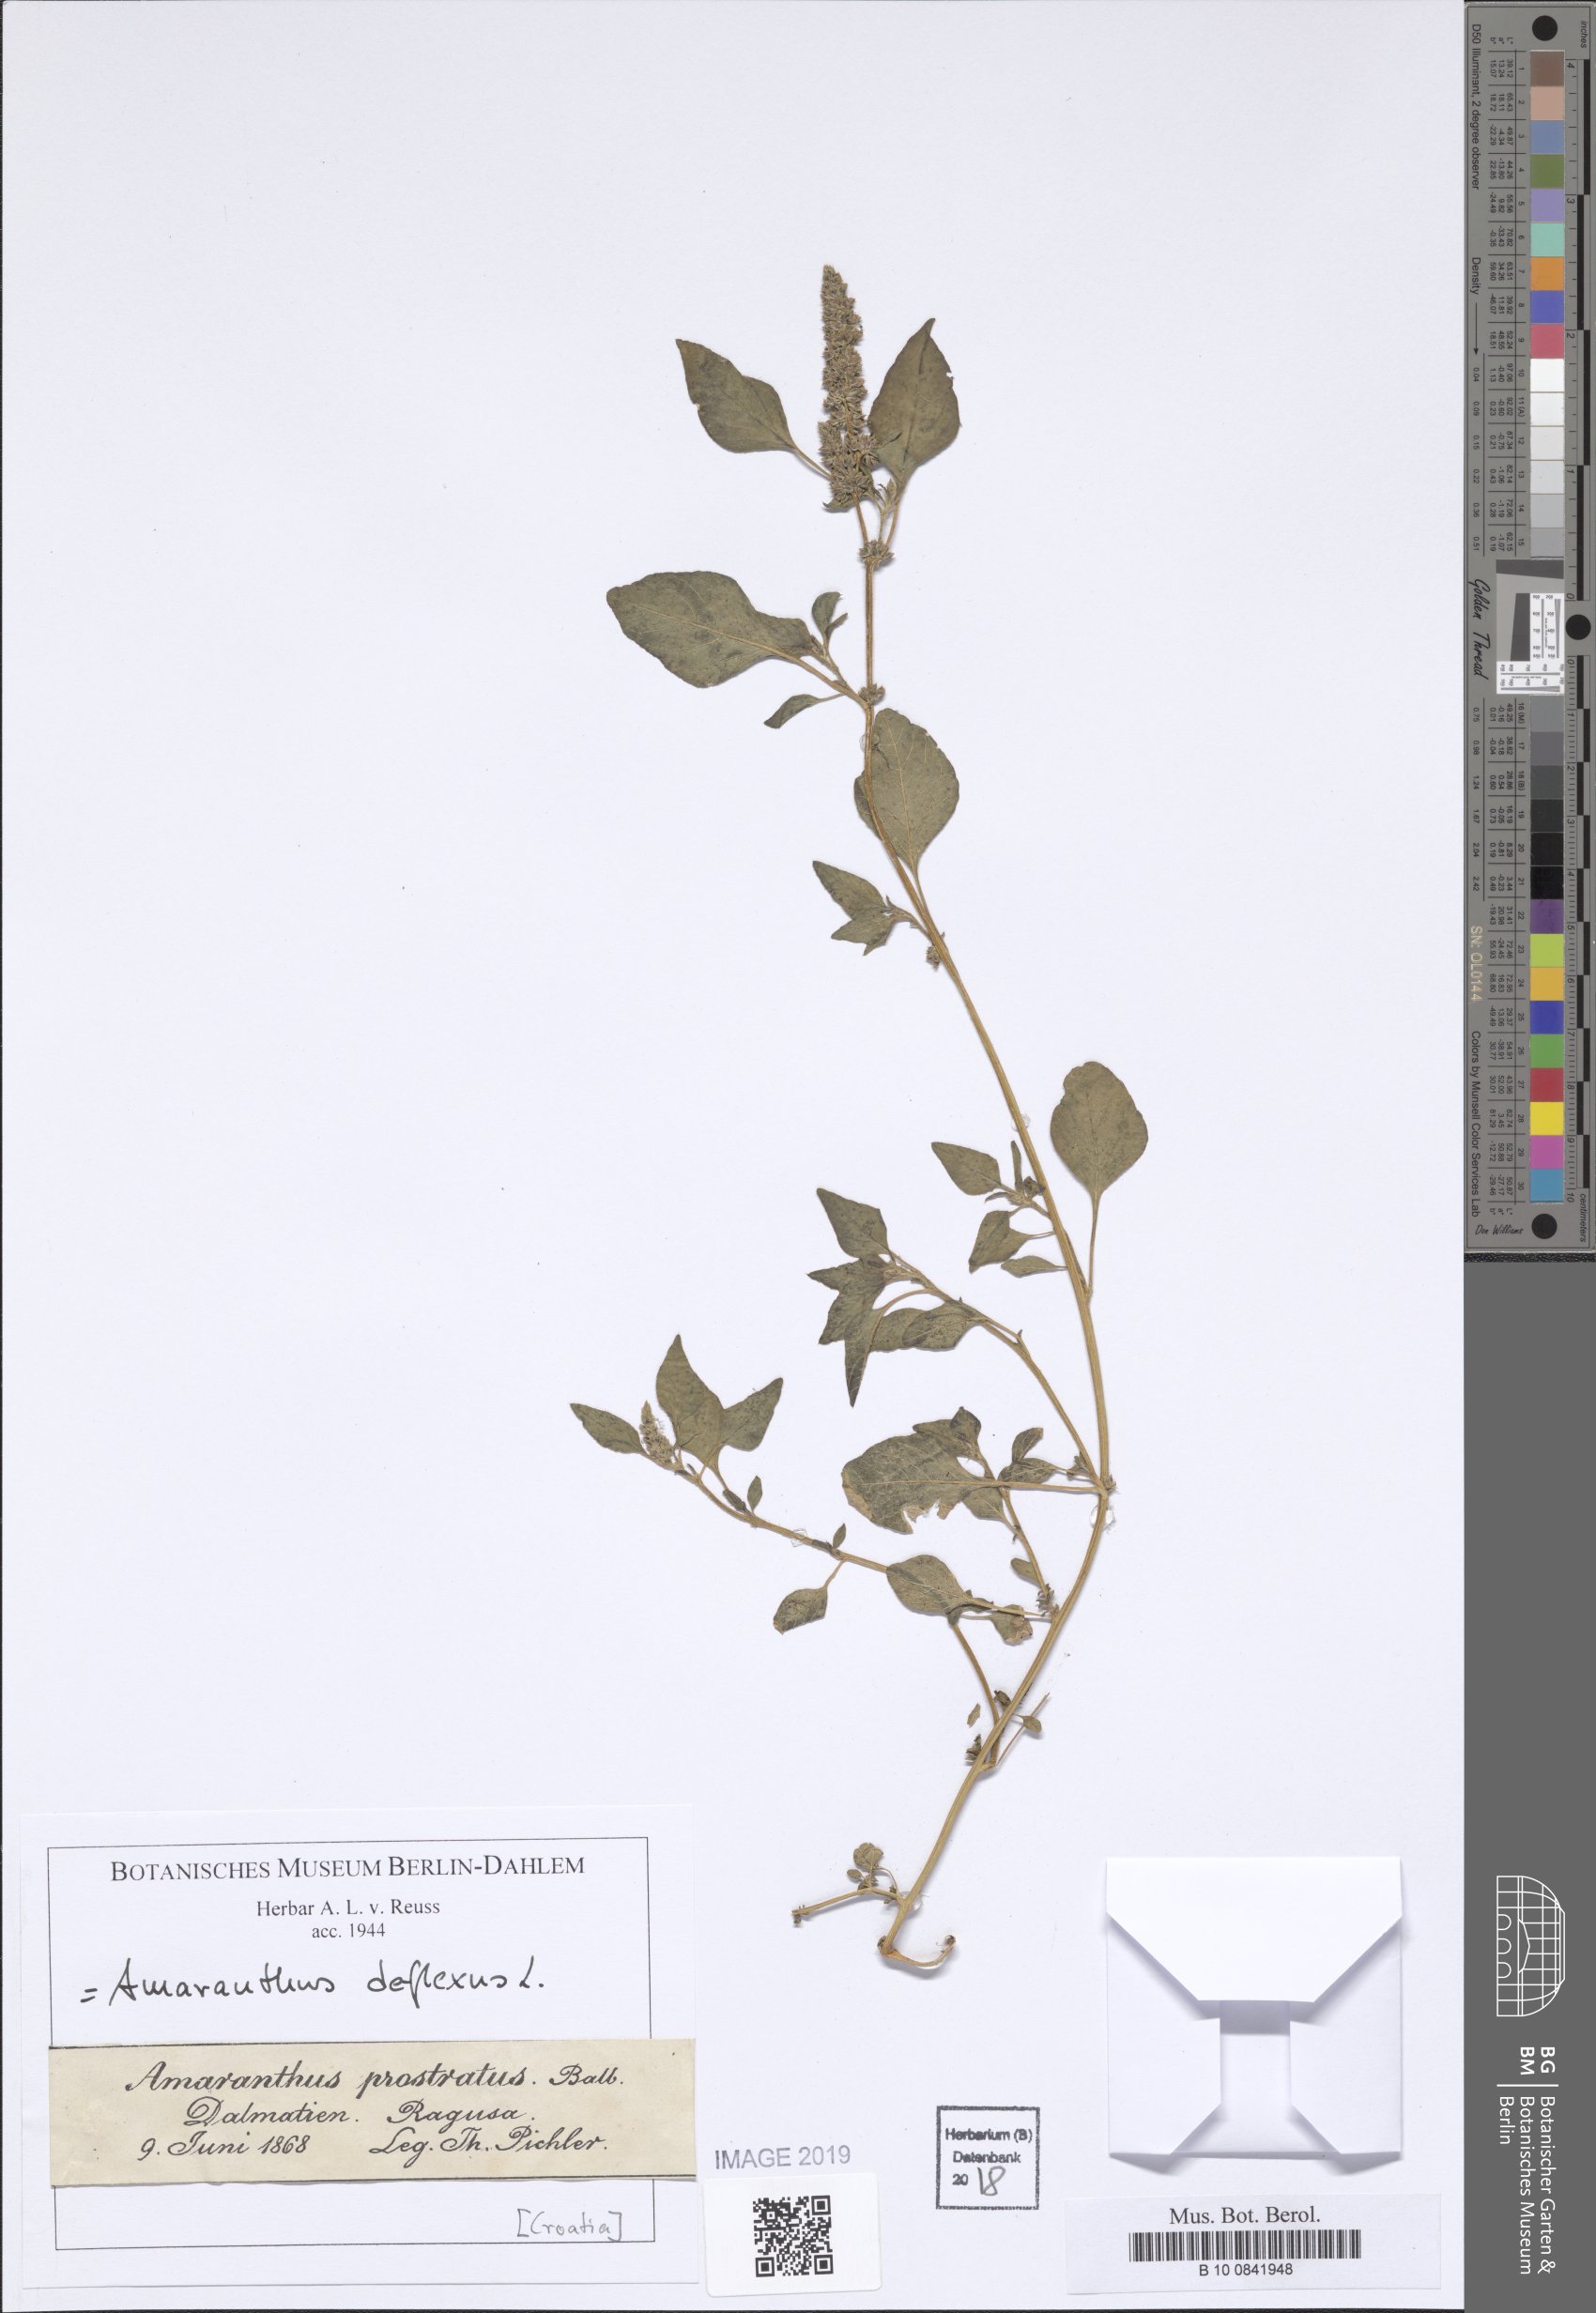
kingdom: Plantae
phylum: Tracheophyta
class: Magnoliopsida
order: Caryophyllales
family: Amaranthaceae
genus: Amaranthus
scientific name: Amaranthus deflexus
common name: Perennial pigweed
